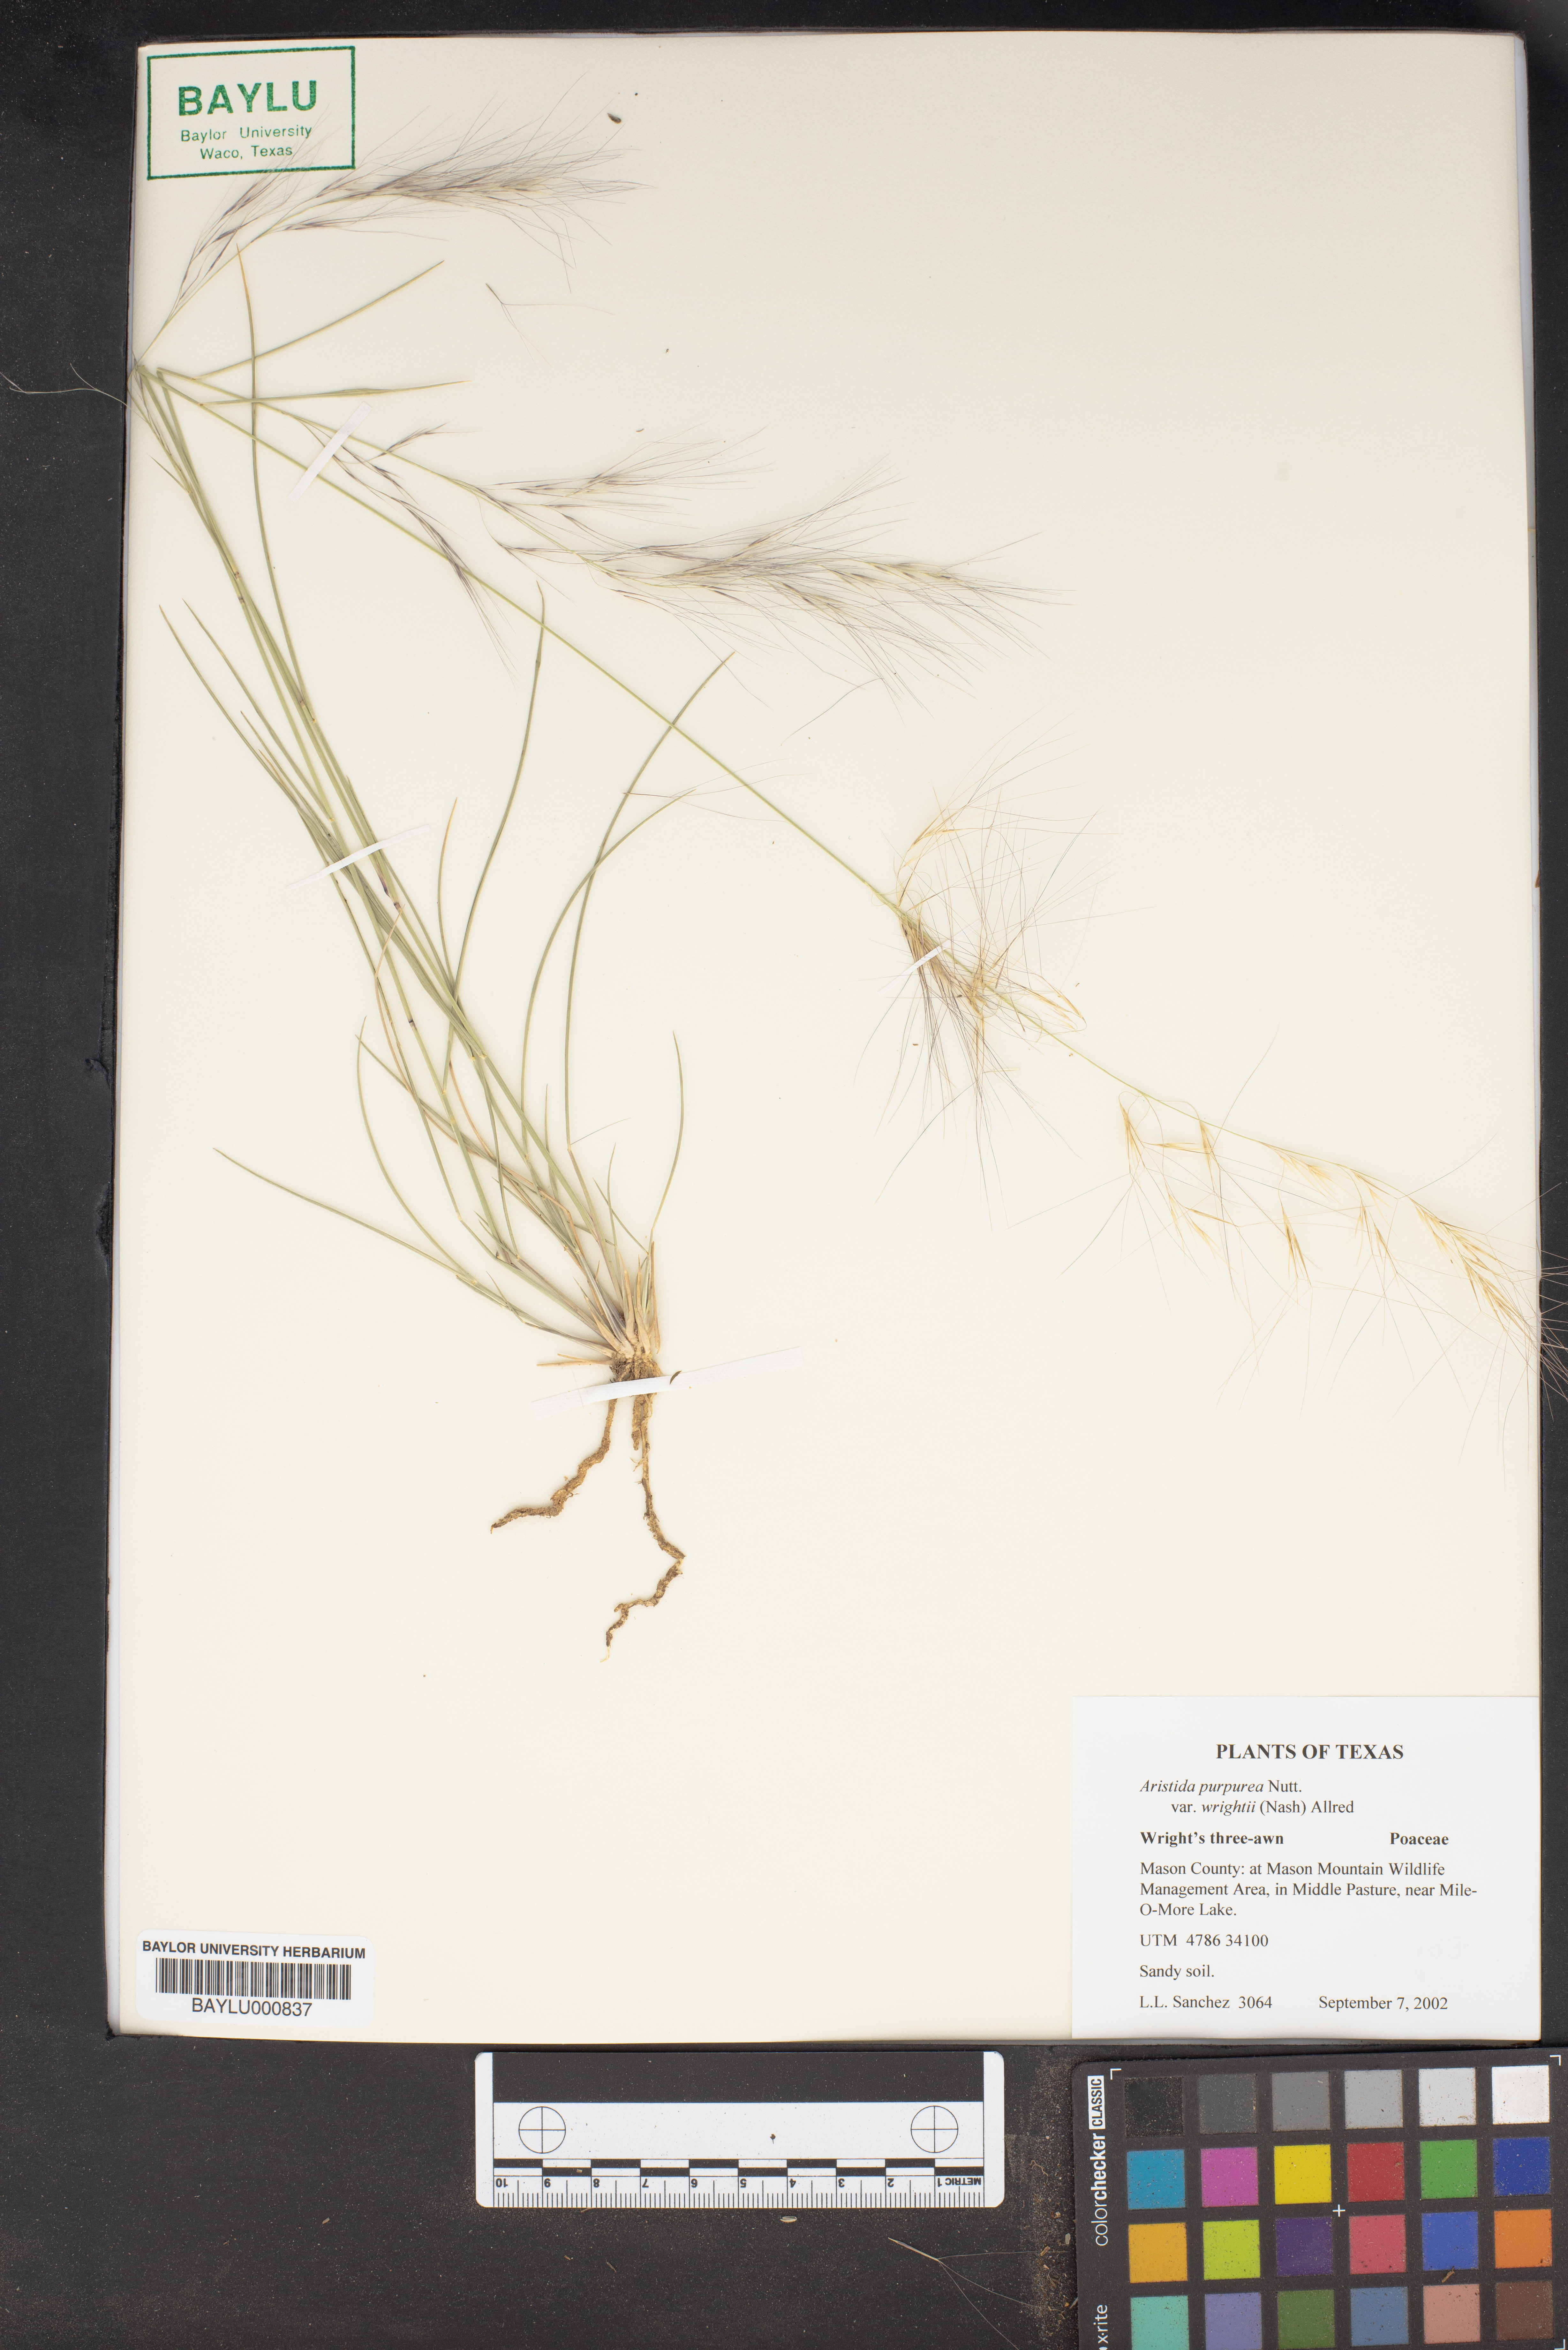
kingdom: Plantae
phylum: Tracheophyta
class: Liliopsida
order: Poales
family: Poaceae
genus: Aristida
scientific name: Aristida wrightii
